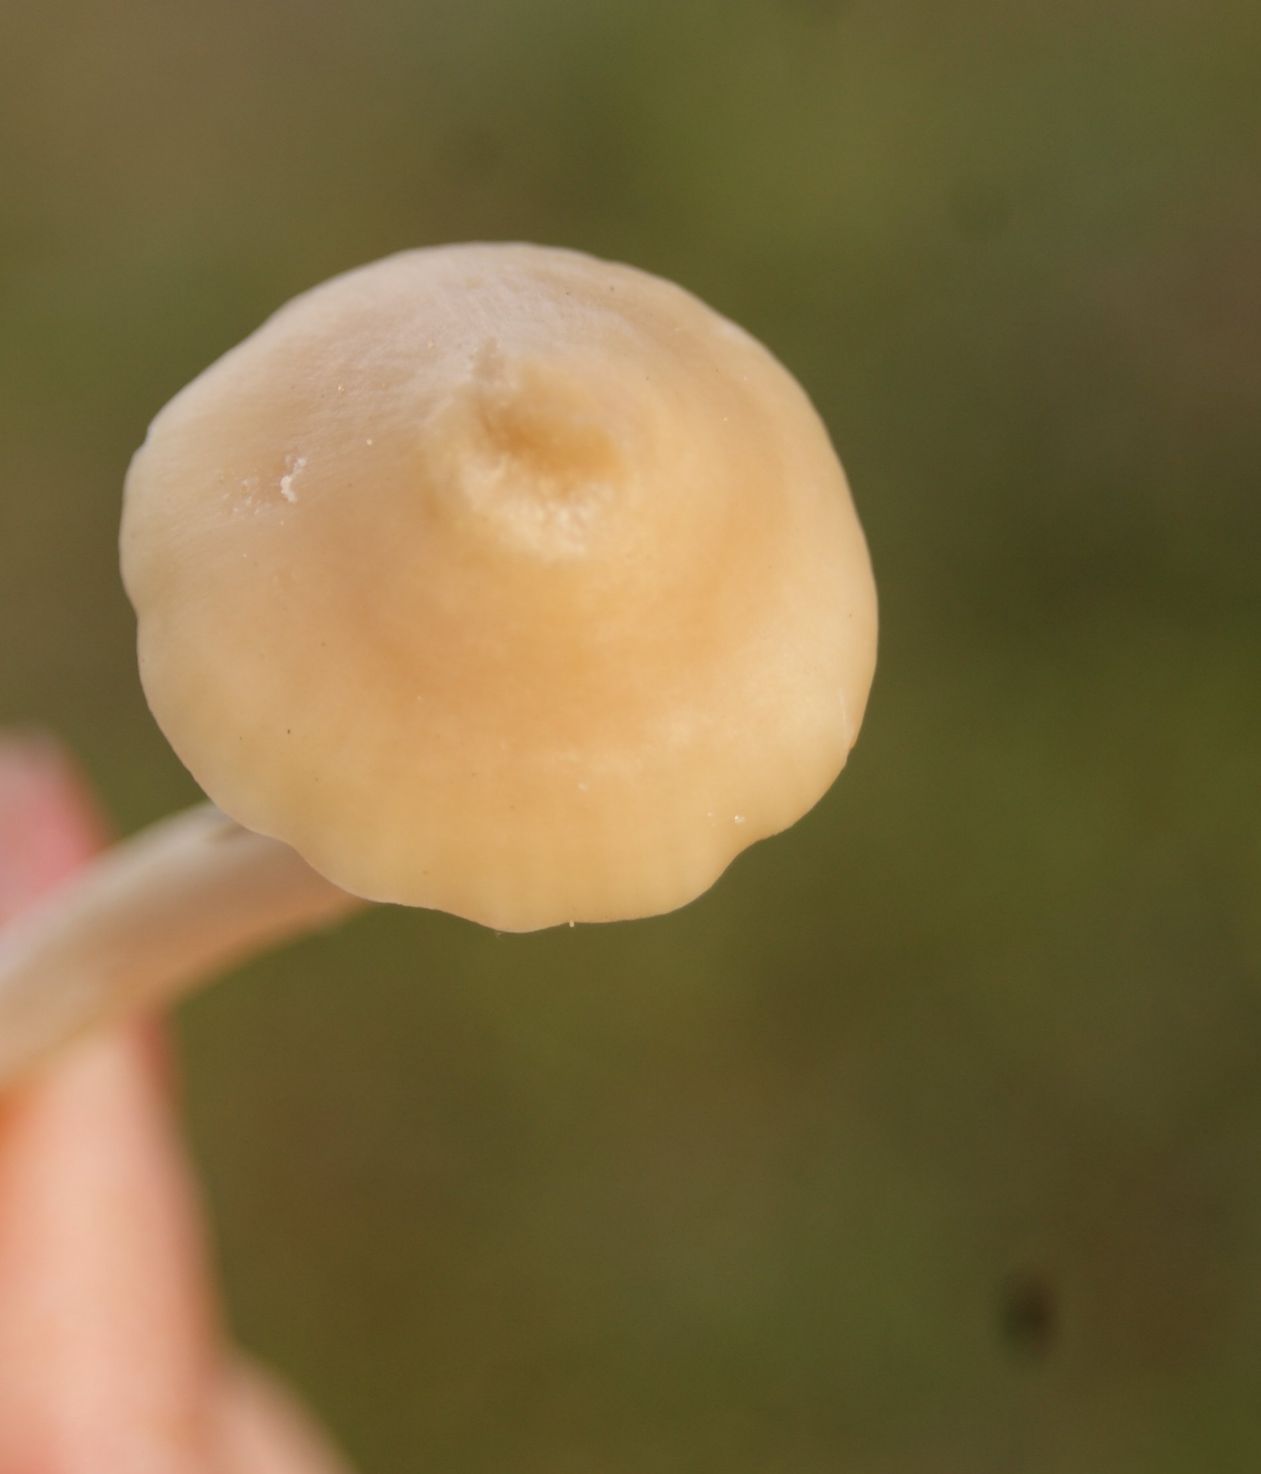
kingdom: Fungi
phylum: Basidiomycota
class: Agaricomycetes
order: Agaricales
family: Hygrophoraceae
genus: Cuphophyllus
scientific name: Cuphophyllus virgineus
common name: isabella-vokshat
